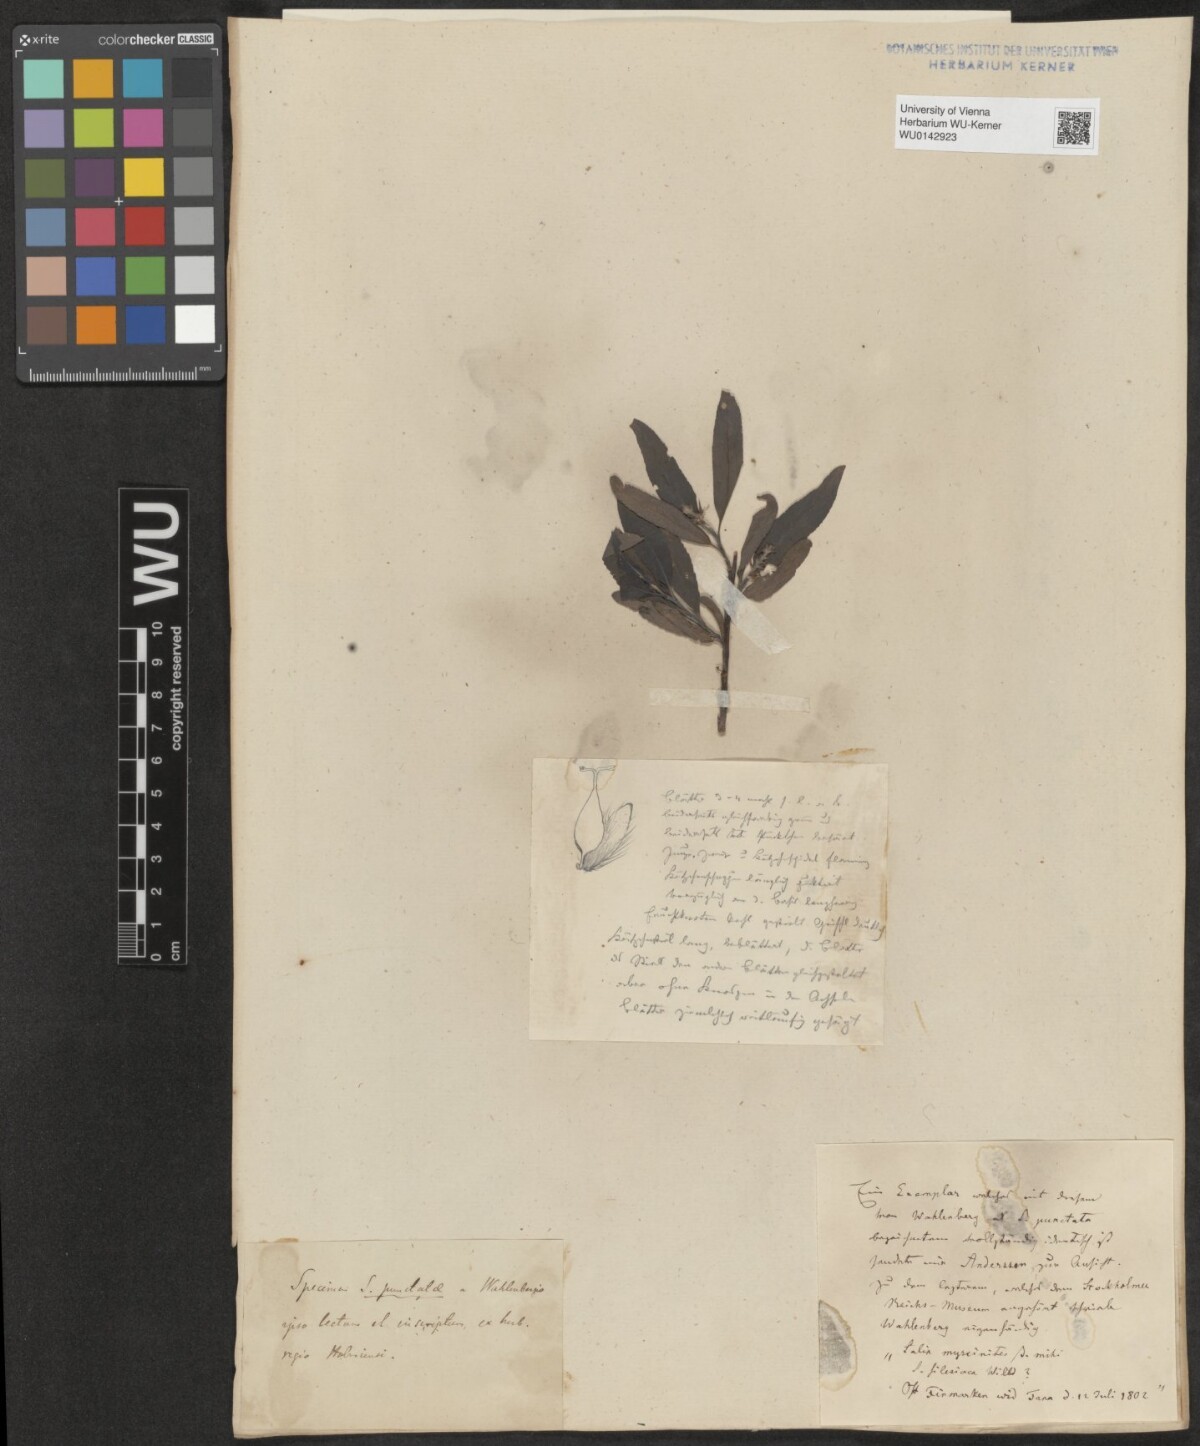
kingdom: Plantae
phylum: Tracheophyta
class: Magnoliopsida
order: Malpighiales
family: Salicaceae
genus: Salix
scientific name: Salix myrsinifolia
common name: Dark-leaved willow
